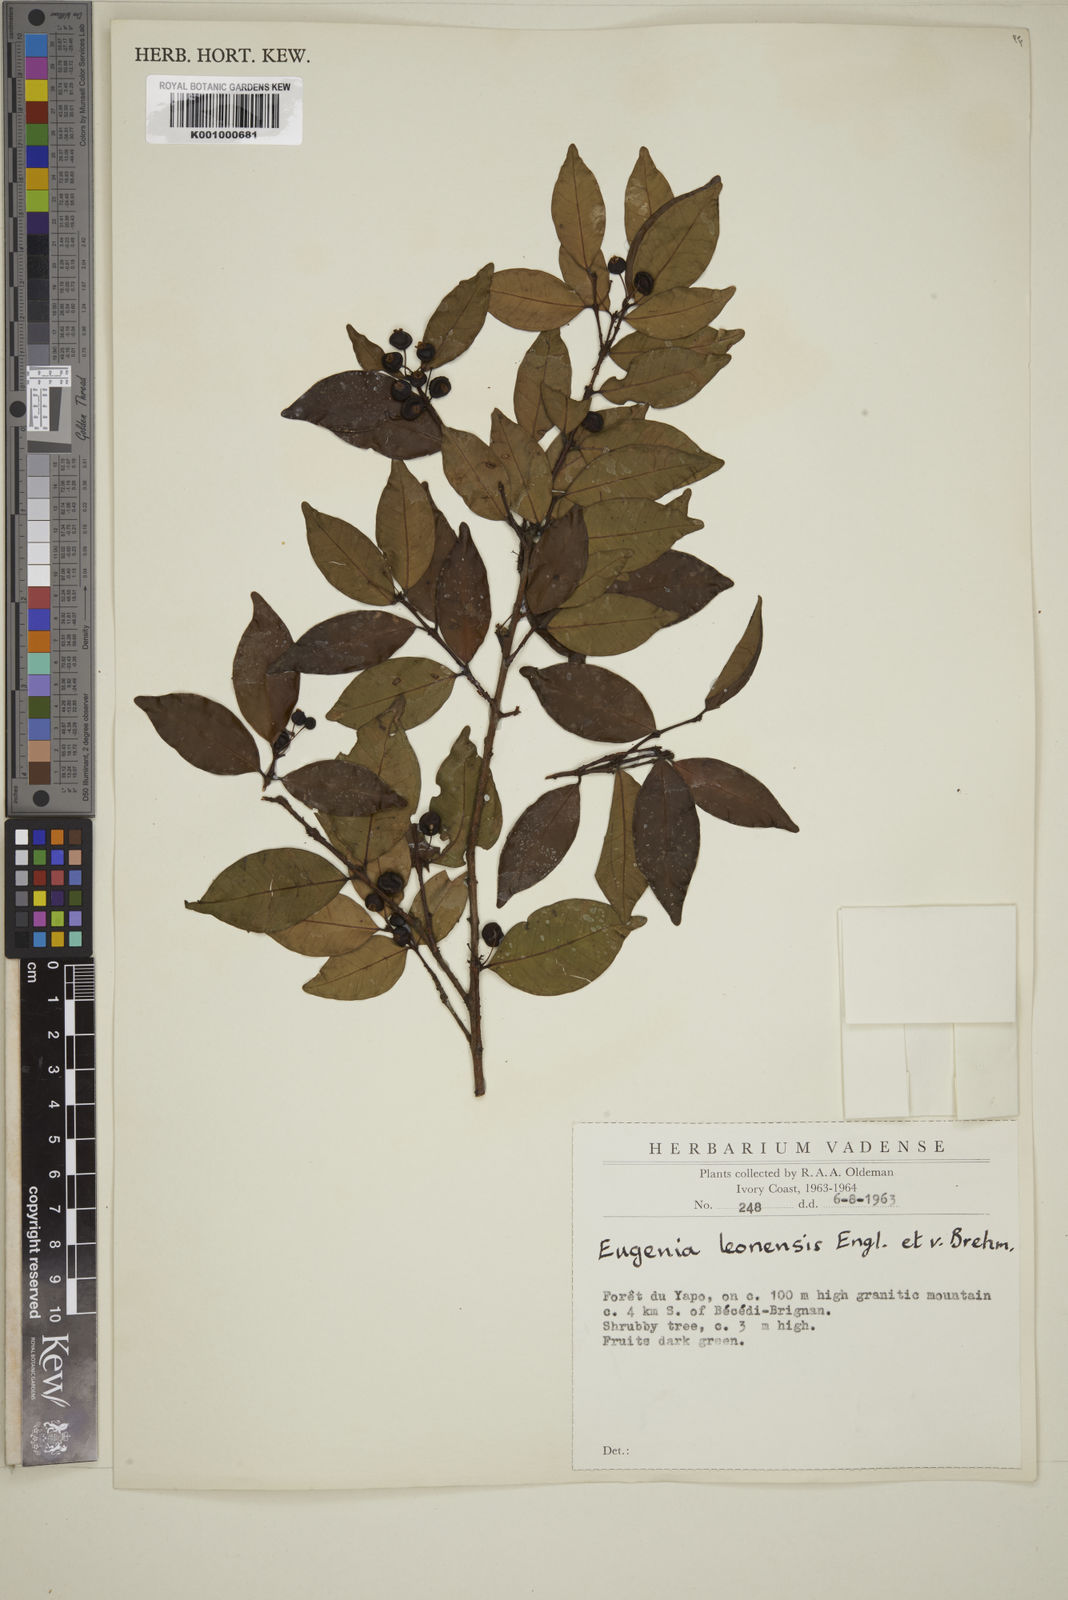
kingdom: Plantae
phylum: Tracheophyta
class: Magnoliopsida
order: Myrtales
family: Myrtaceae
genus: Eugenia
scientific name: Eugenia leonensis
